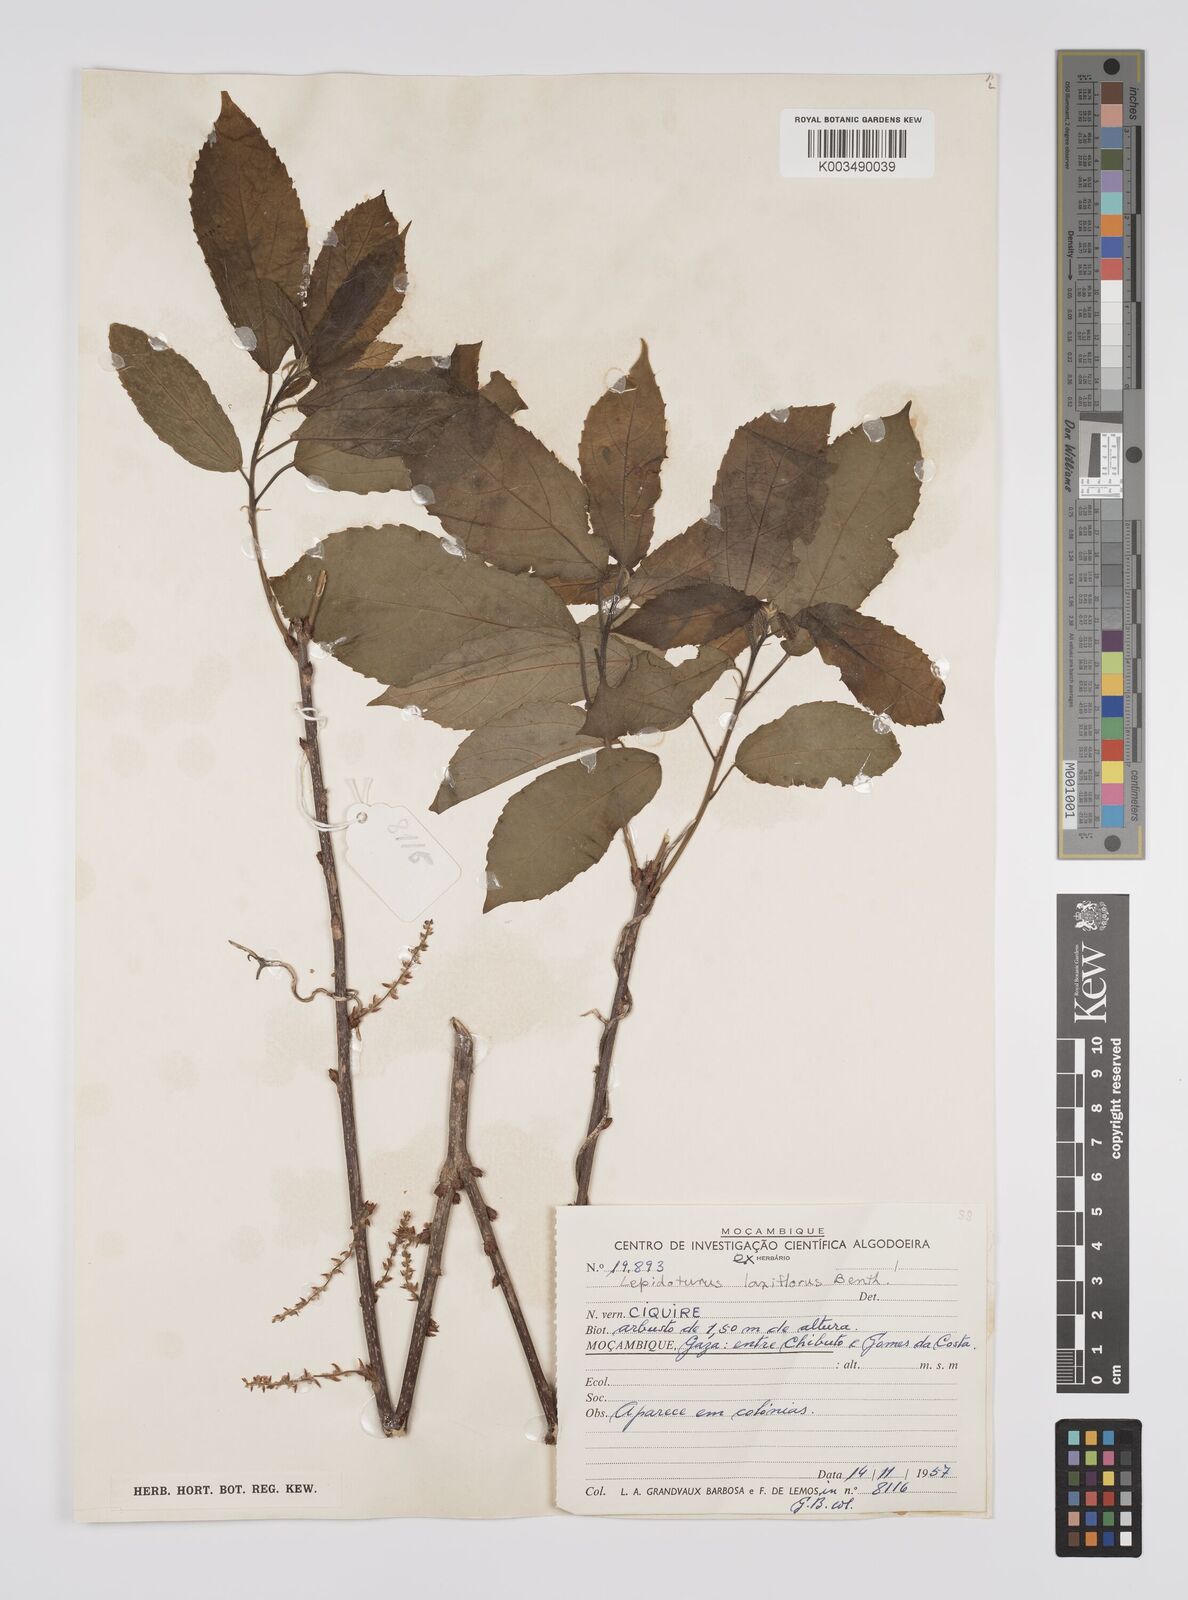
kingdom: Plantae
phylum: Tracheophyta
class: Magnoliopsida
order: Malpighiales
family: Euphorbiaceae
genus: Alchornea
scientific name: Alchornea laxiflora
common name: Lowveld bead-string
